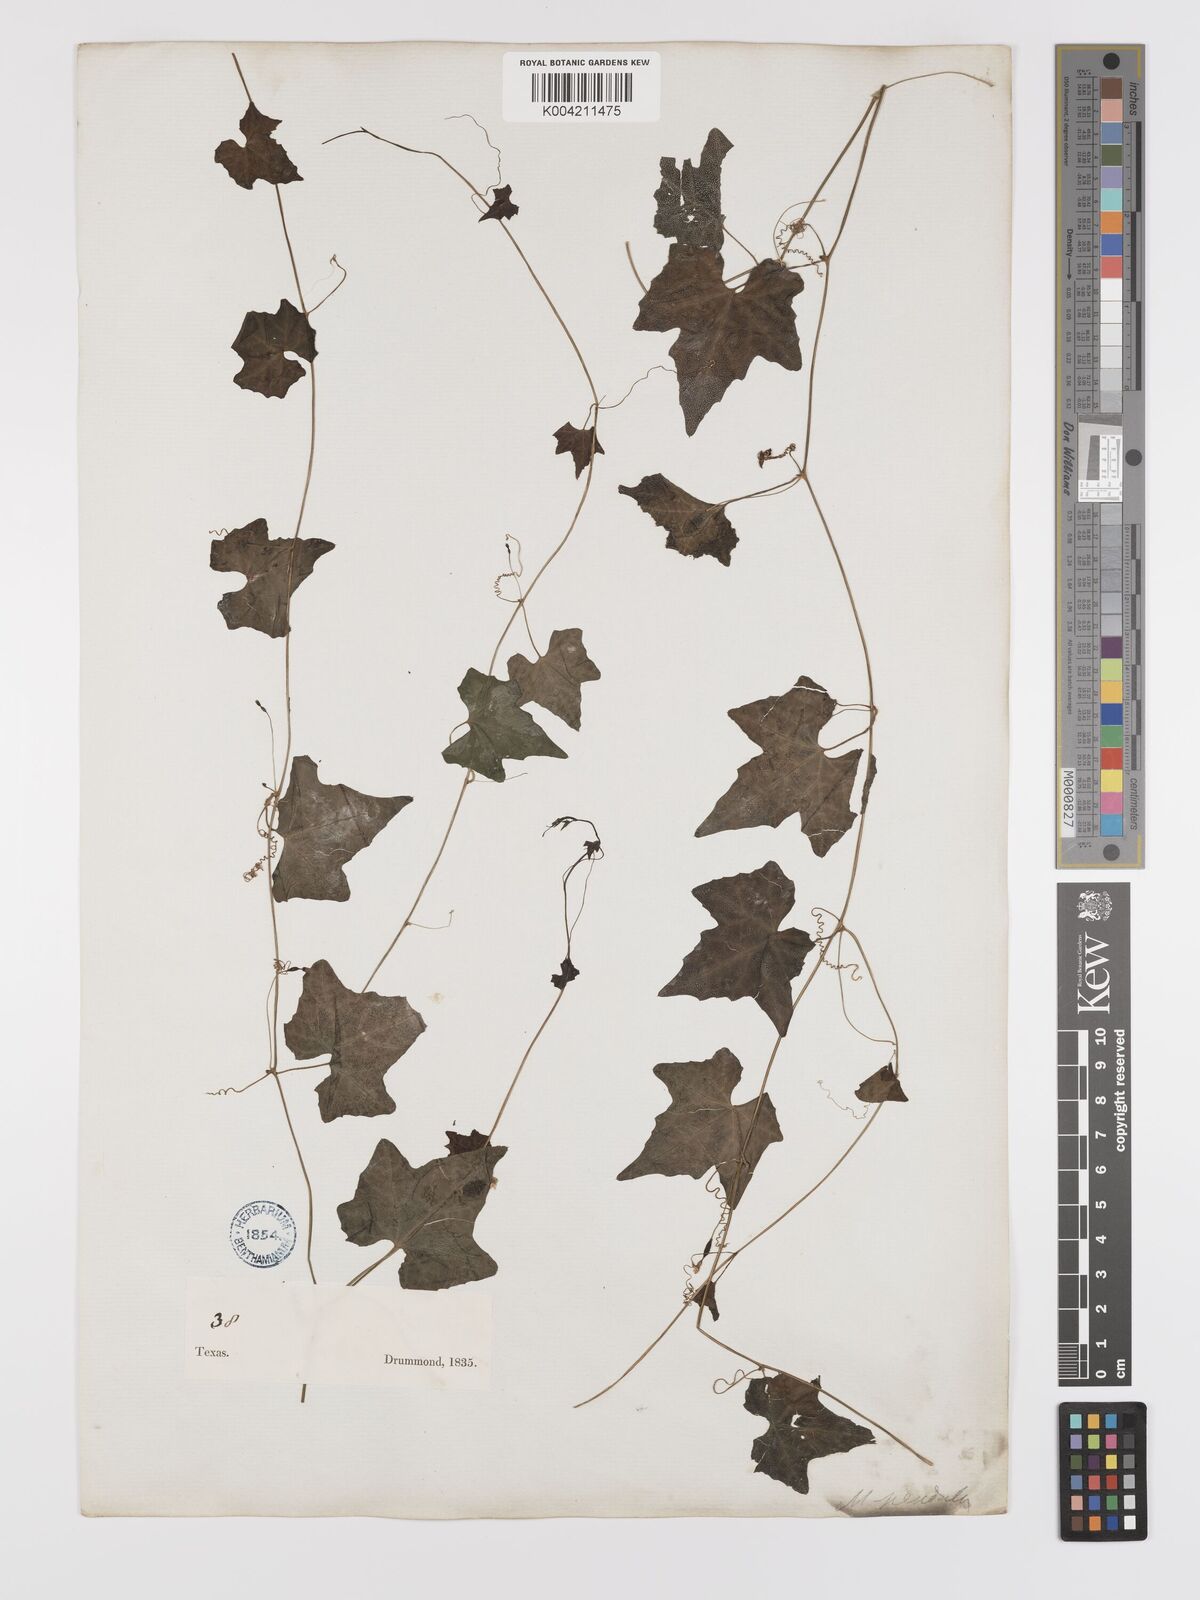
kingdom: Plantae
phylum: Tracheophyta
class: Magnoliopsida
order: Cucurbitales
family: Cucurbitaceae
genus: Melothria
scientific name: Melothria pendula
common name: Creeping-cucumber
